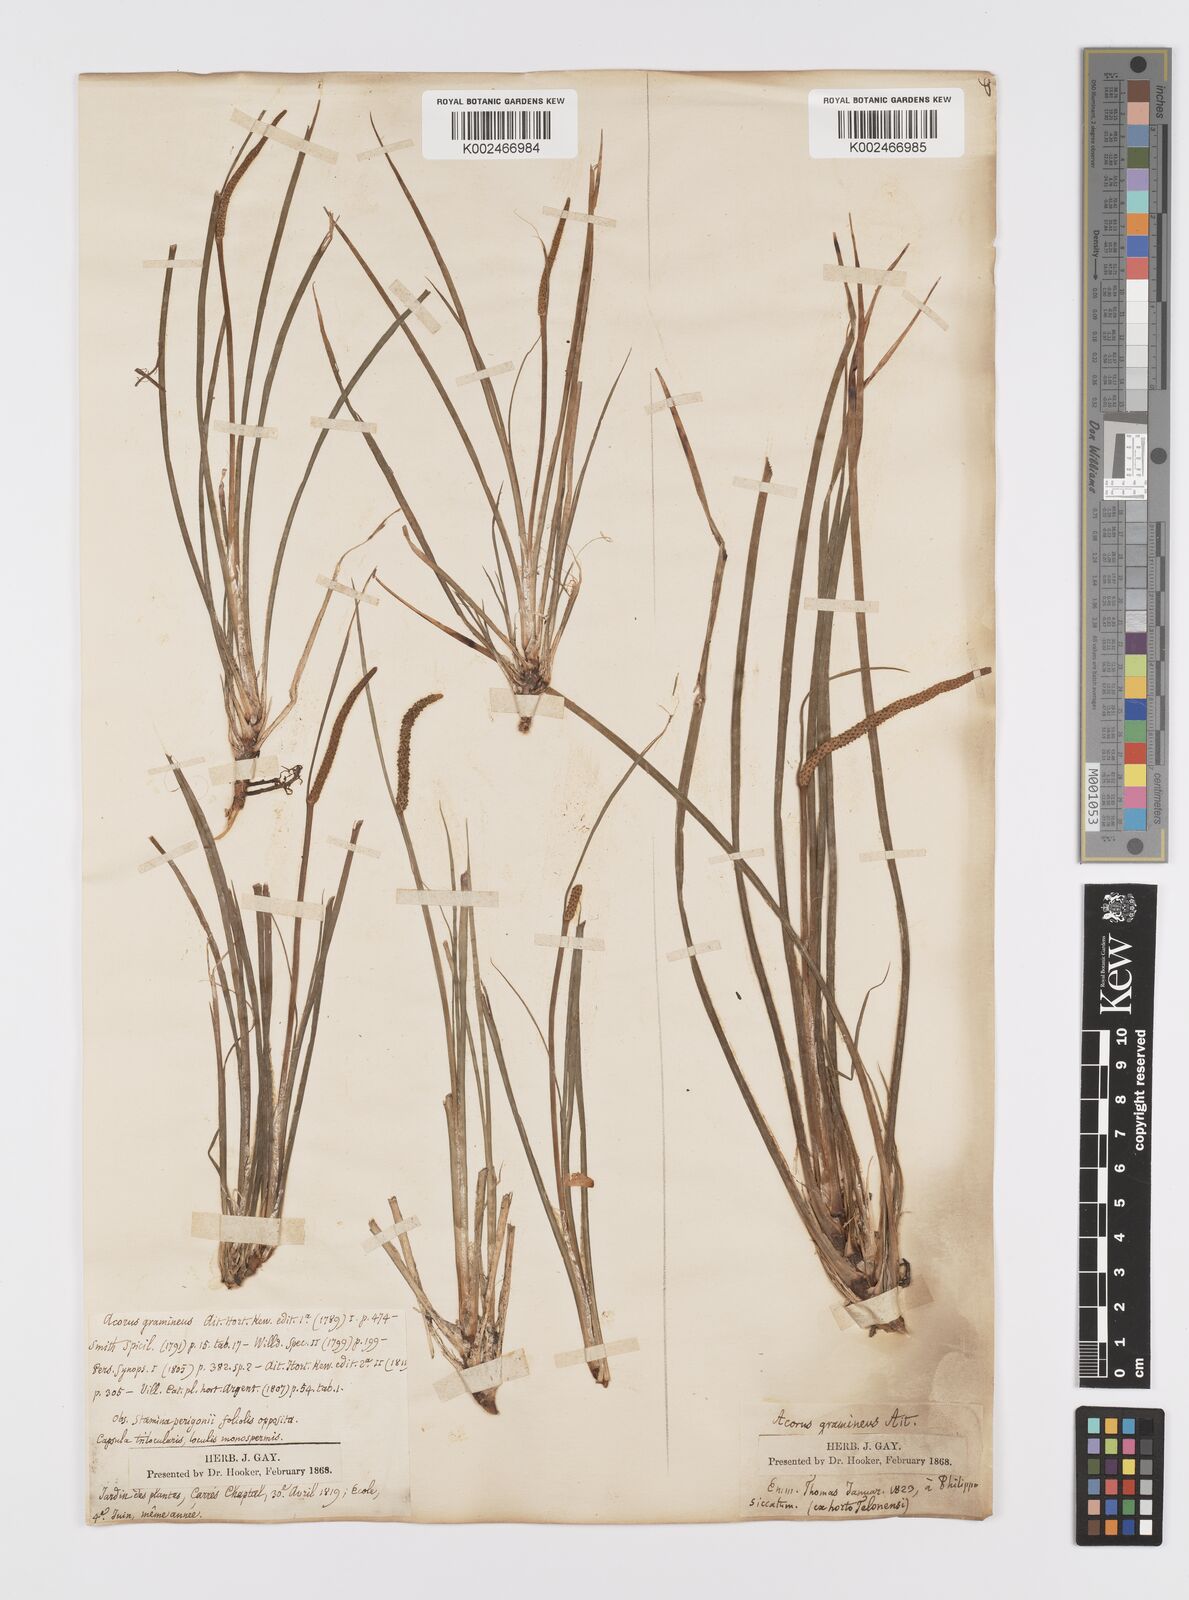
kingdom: Plantae
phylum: Tracheophyta
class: Liliopsida
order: Acorales
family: Acoraceae
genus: Acorus
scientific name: Acorus gramineus
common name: Slender sweet-flag
